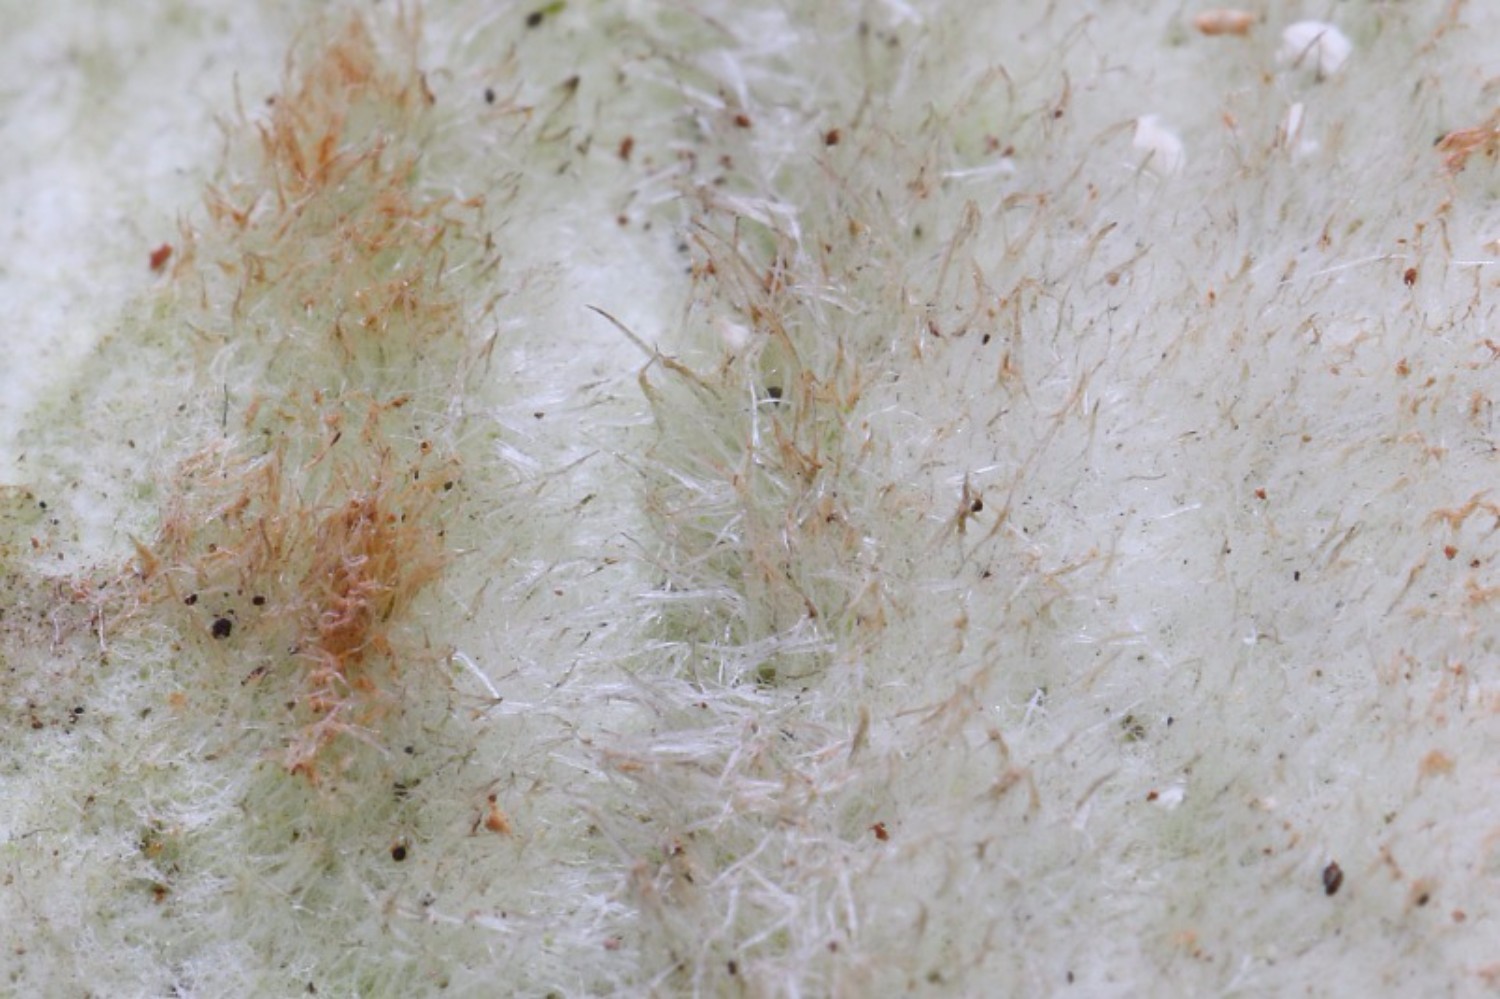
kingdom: Fungi
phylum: Basidiomycota
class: Agaricomycetes
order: Polyporales
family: Polyporaceae
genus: Trametes
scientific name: Trametes hirsuta
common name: håret læderporesvamp
